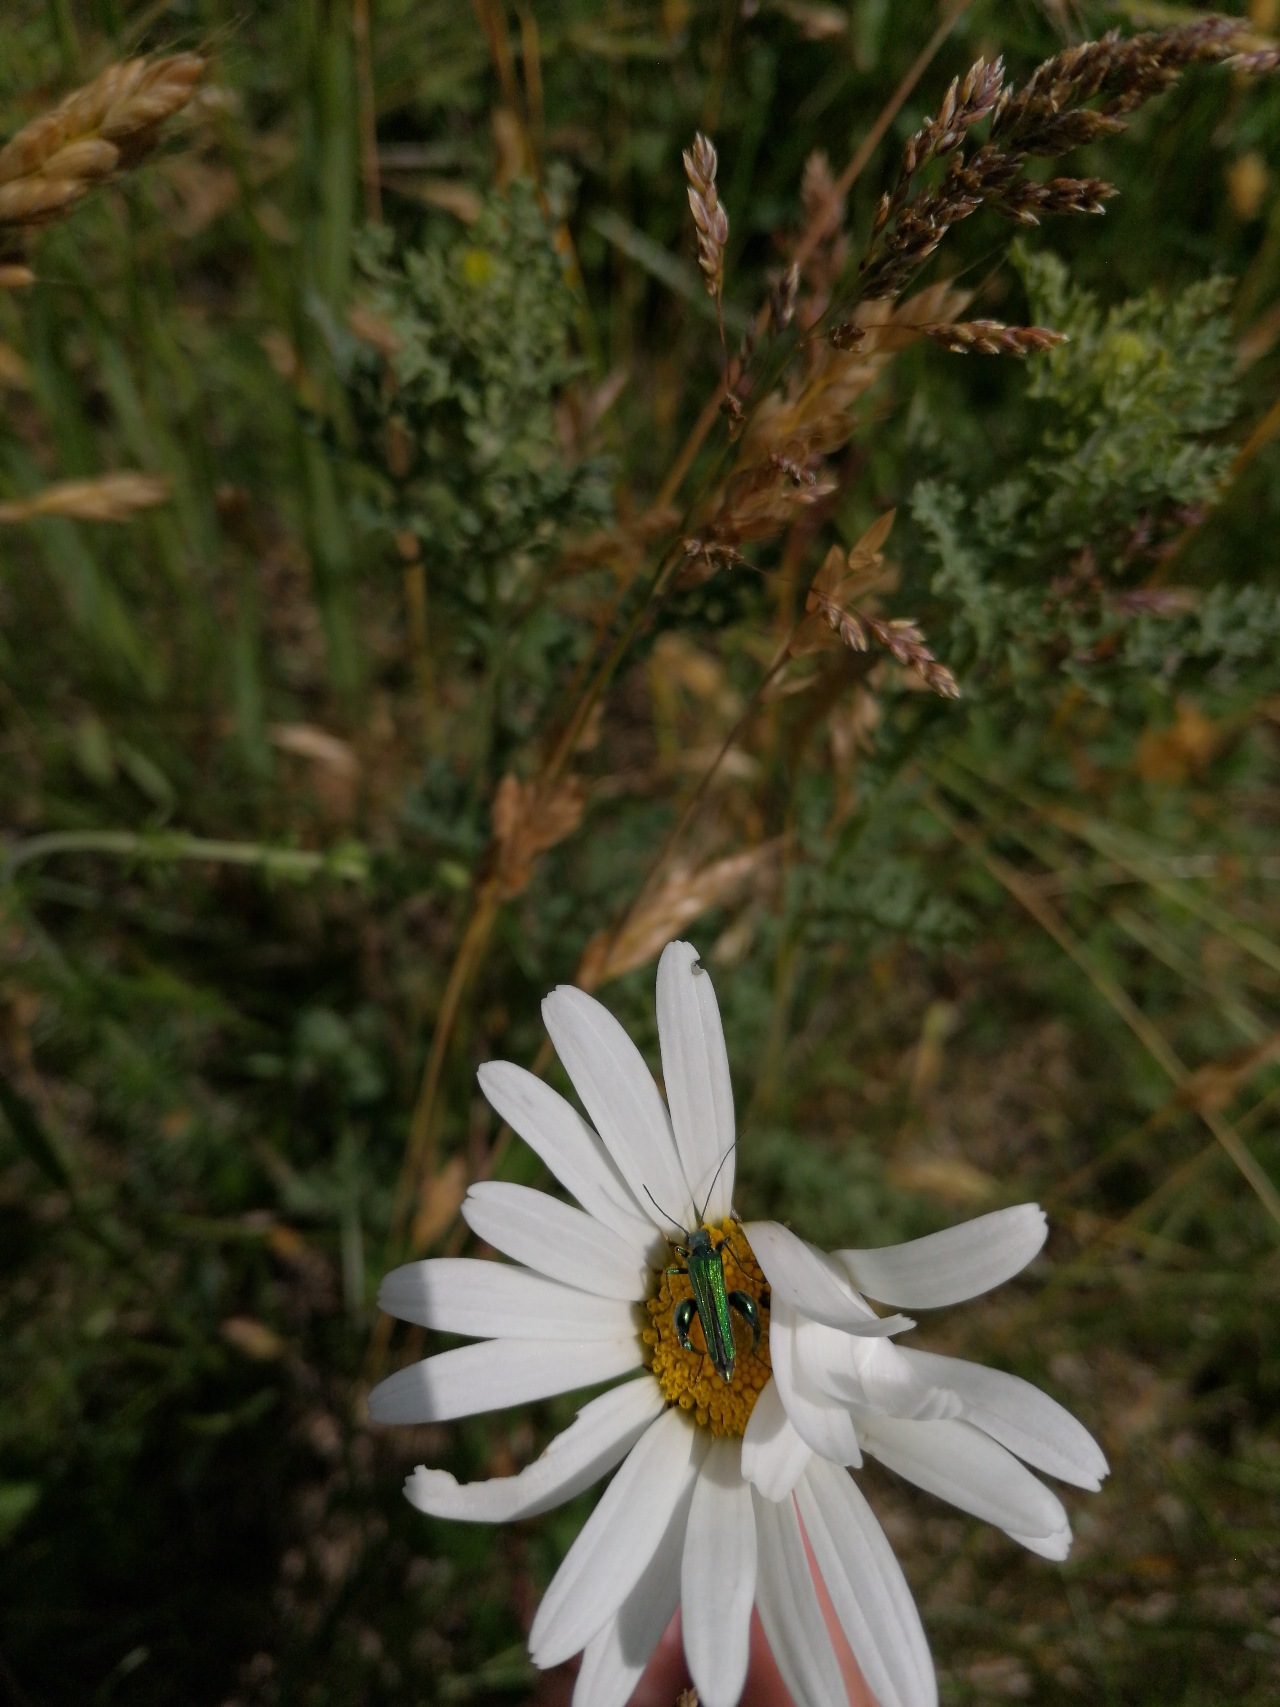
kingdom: Animalia
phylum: Arthropoda
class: Insecta
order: Coleoptera
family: Oedemeridae
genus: Oedemera
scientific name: Oedemera nobilis
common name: Tyklårssolbille
